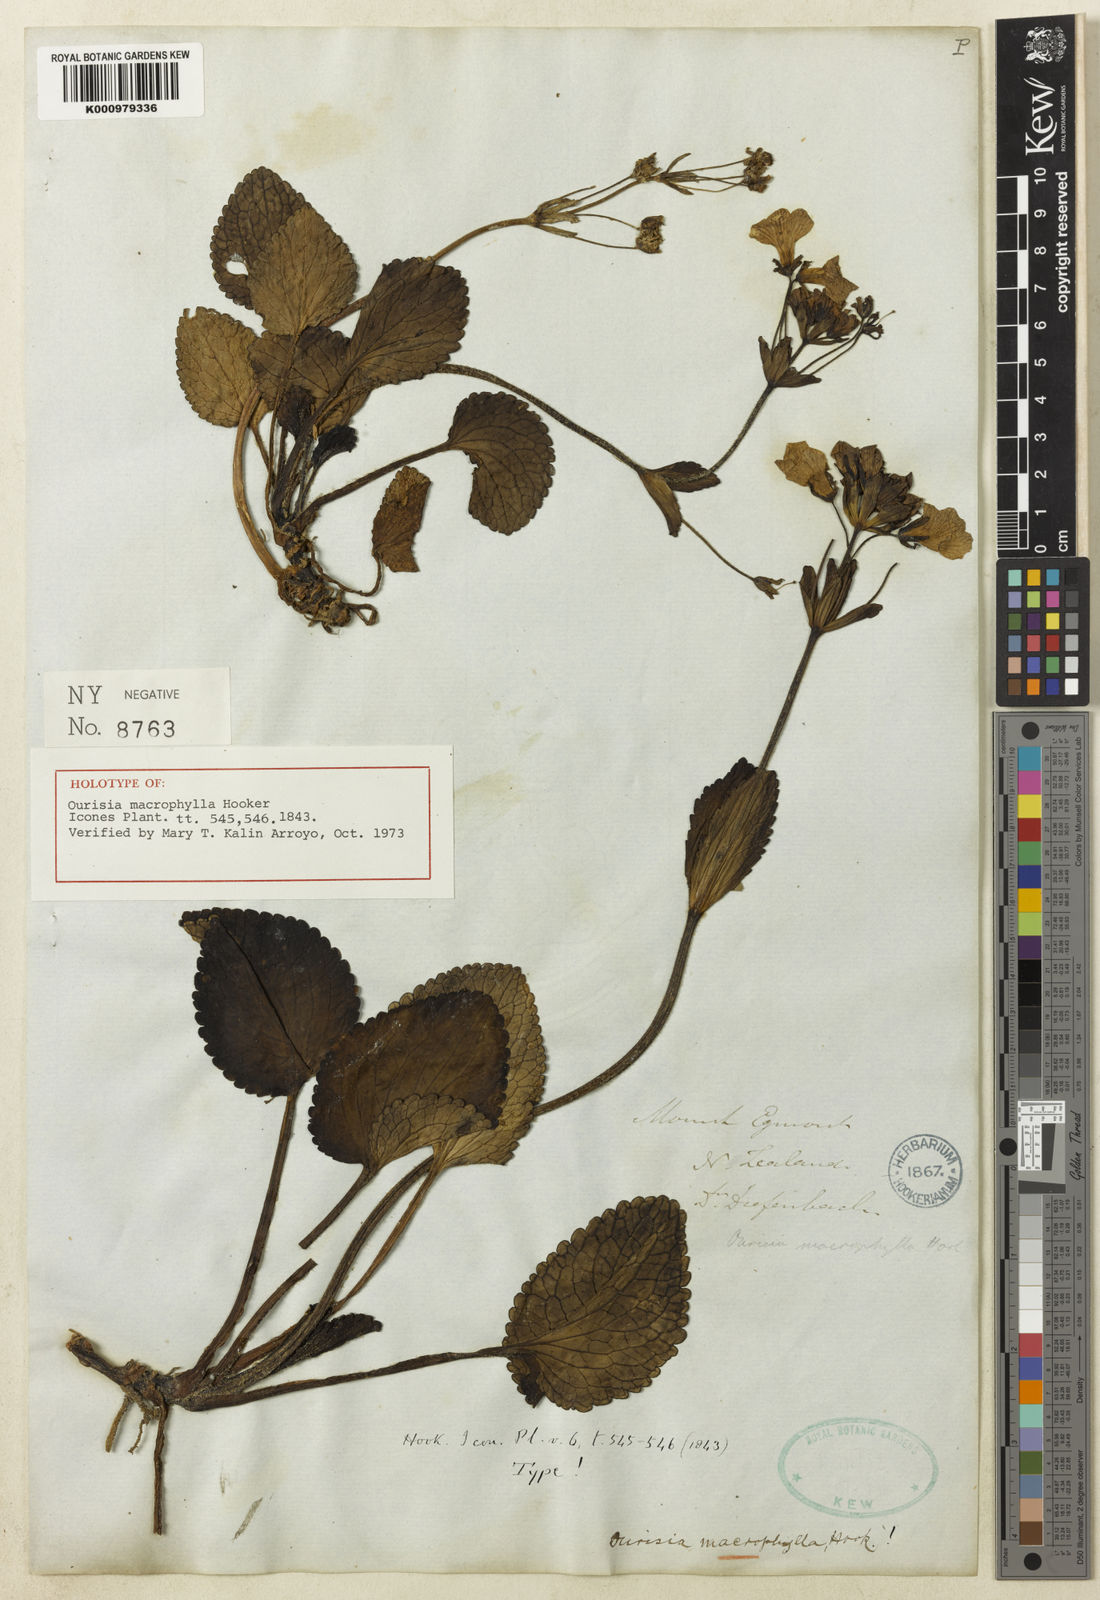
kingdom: Plantae
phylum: Tracheophyta
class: Magnoliopsida
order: Lamiales
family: Plantaginaceae
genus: Ourisia
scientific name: Ourisia macrophylla
